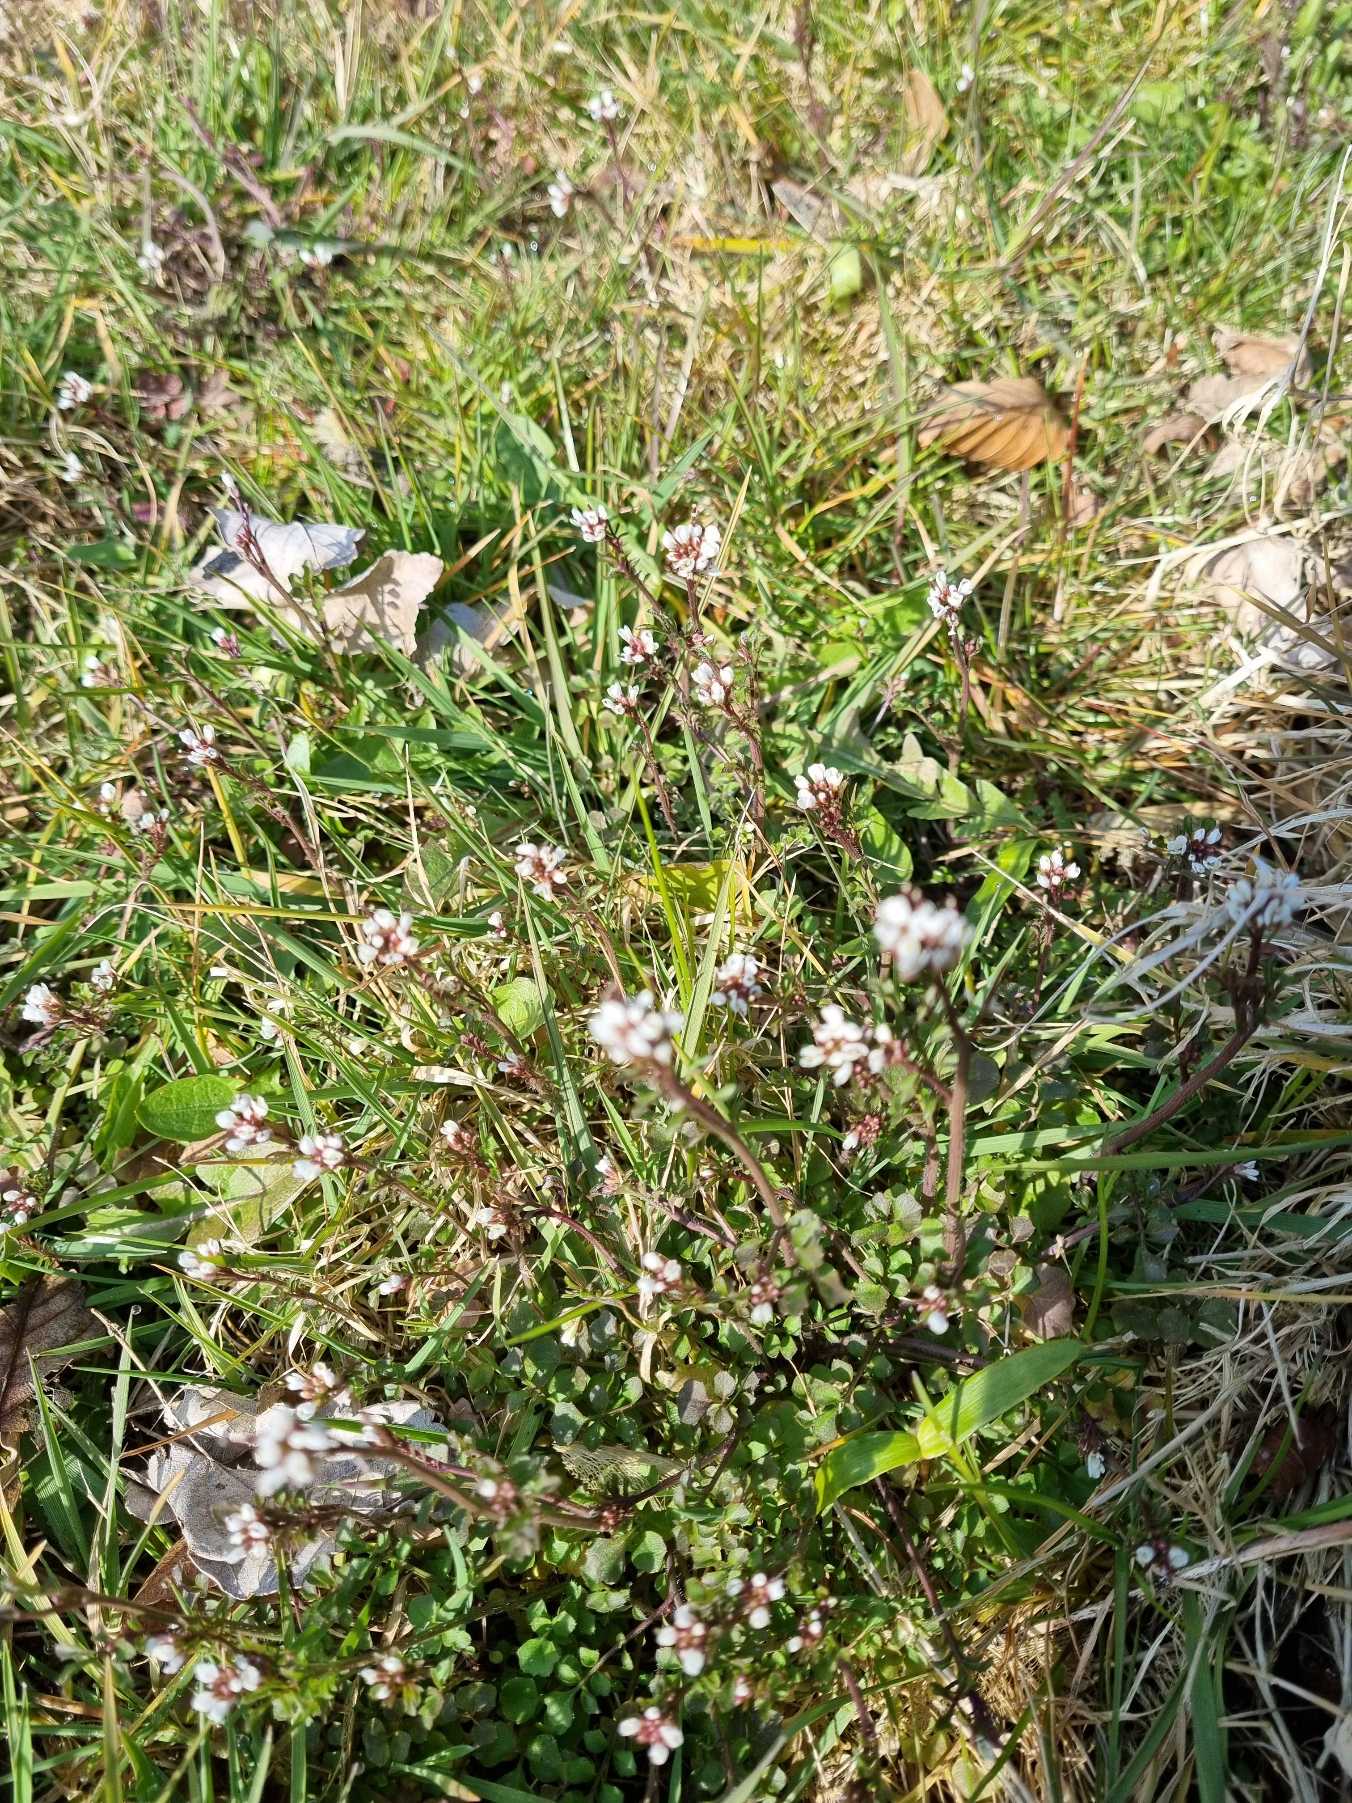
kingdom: Plantae
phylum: Tracheophyta
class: Magnoliopsida
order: Brassicales
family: Brassicaceae
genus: Cardamine
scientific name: Cardamine hirsuta
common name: Roset-springklap
